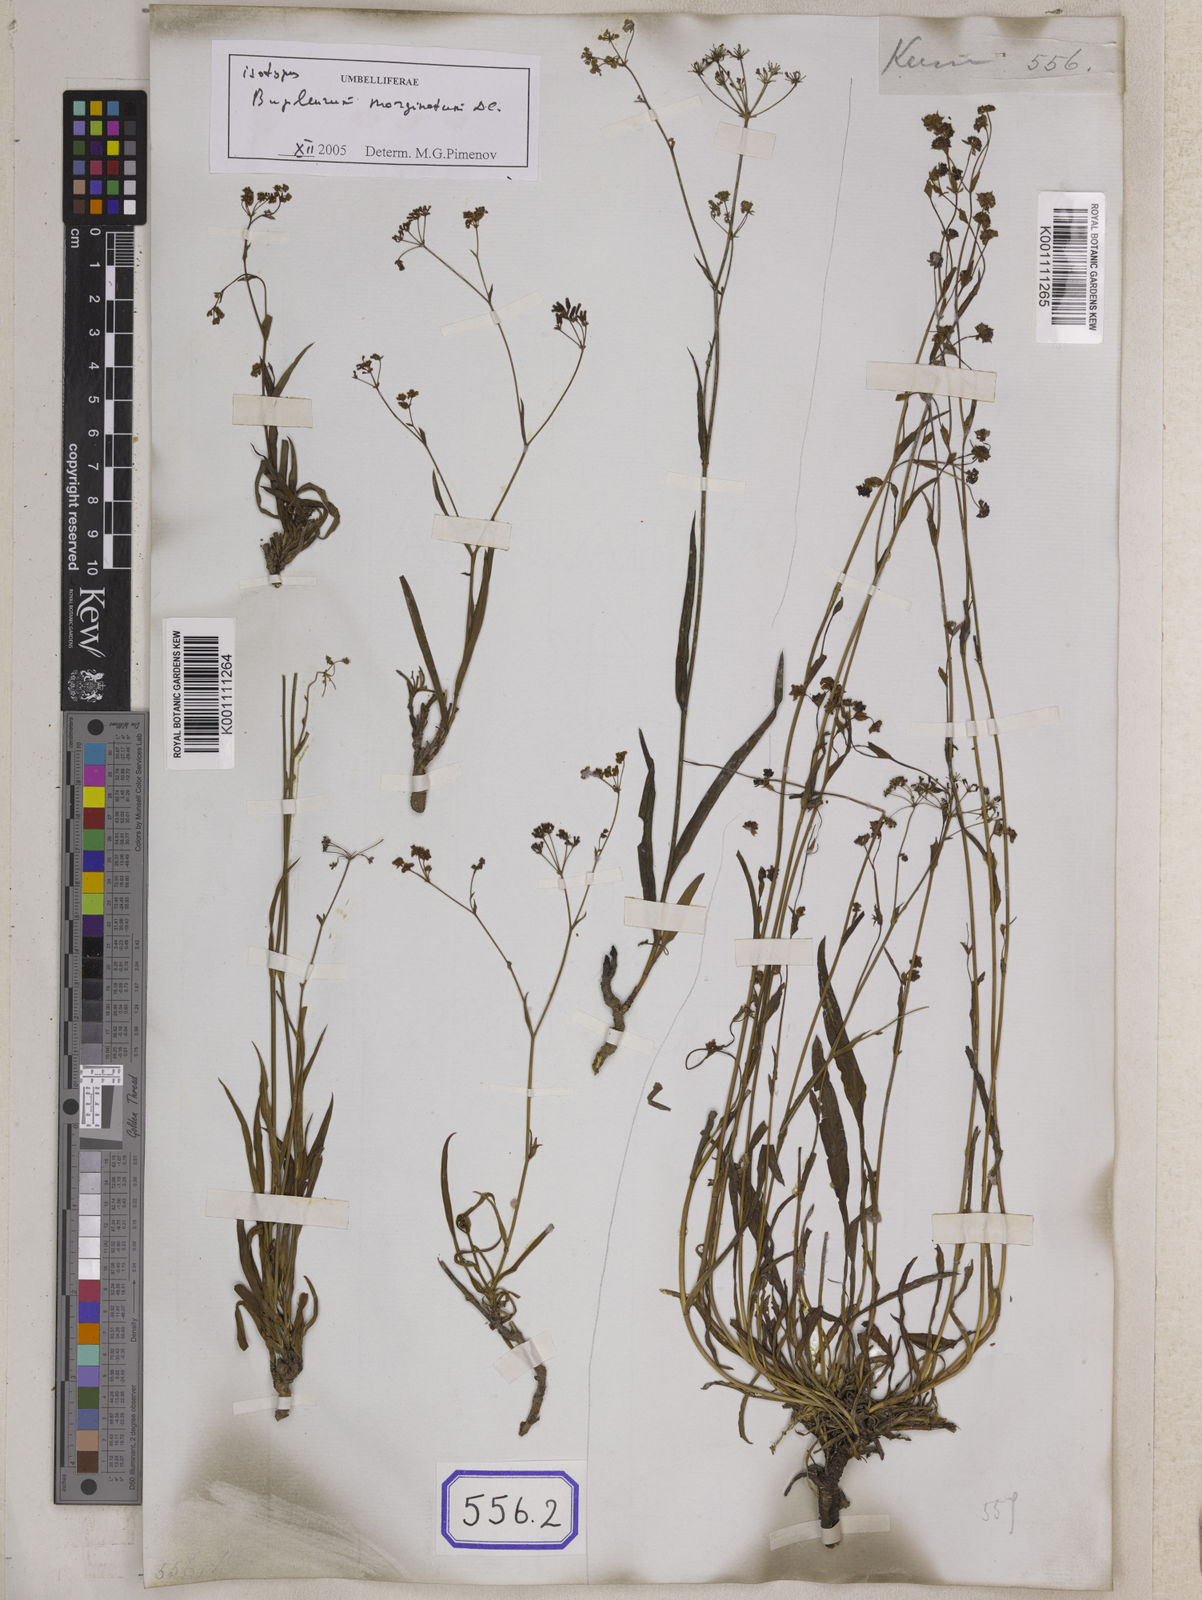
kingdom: Plantae
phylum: Tracheophyta
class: Magnoliopsida
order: Apiales
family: Apiaceae
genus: Bupleurum
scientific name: Bupleurum
